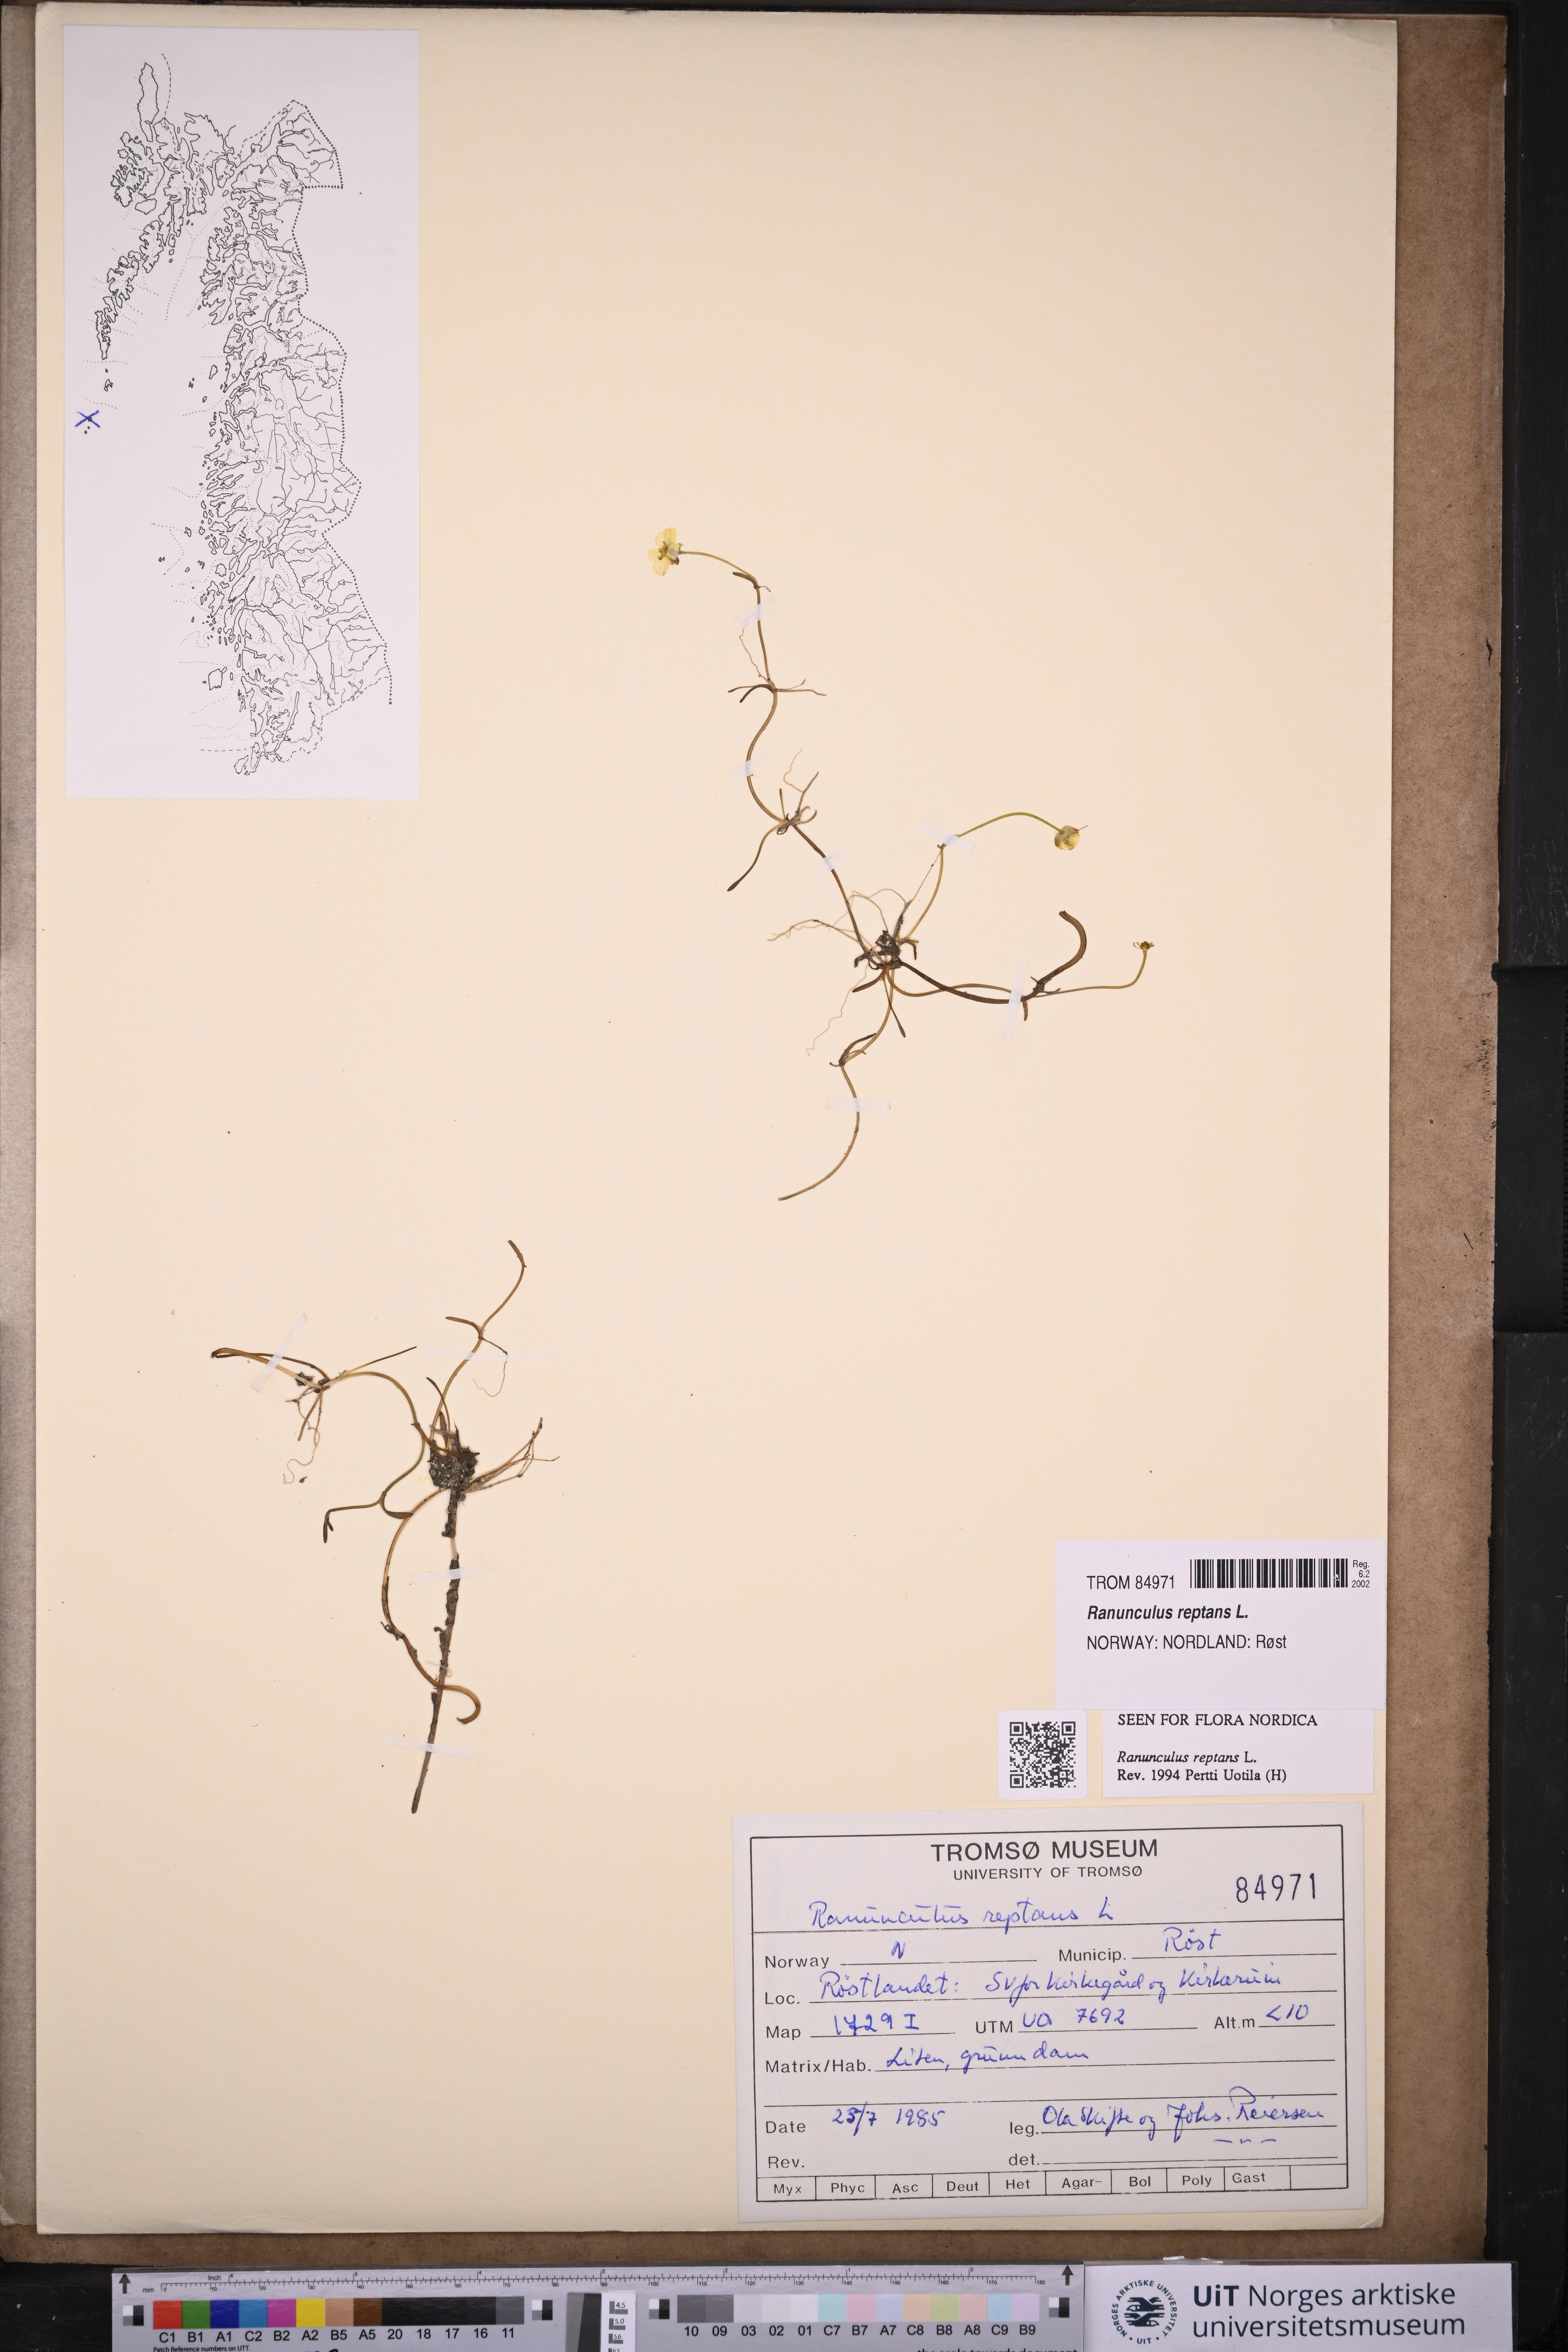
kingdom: Plantae
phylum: Tracheophyta
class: Magnoliopsida
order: Ranunculales
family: Ranunculaceae
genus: Ranunculus
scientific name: Ranunculus reptans
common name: Creeping spearwort
